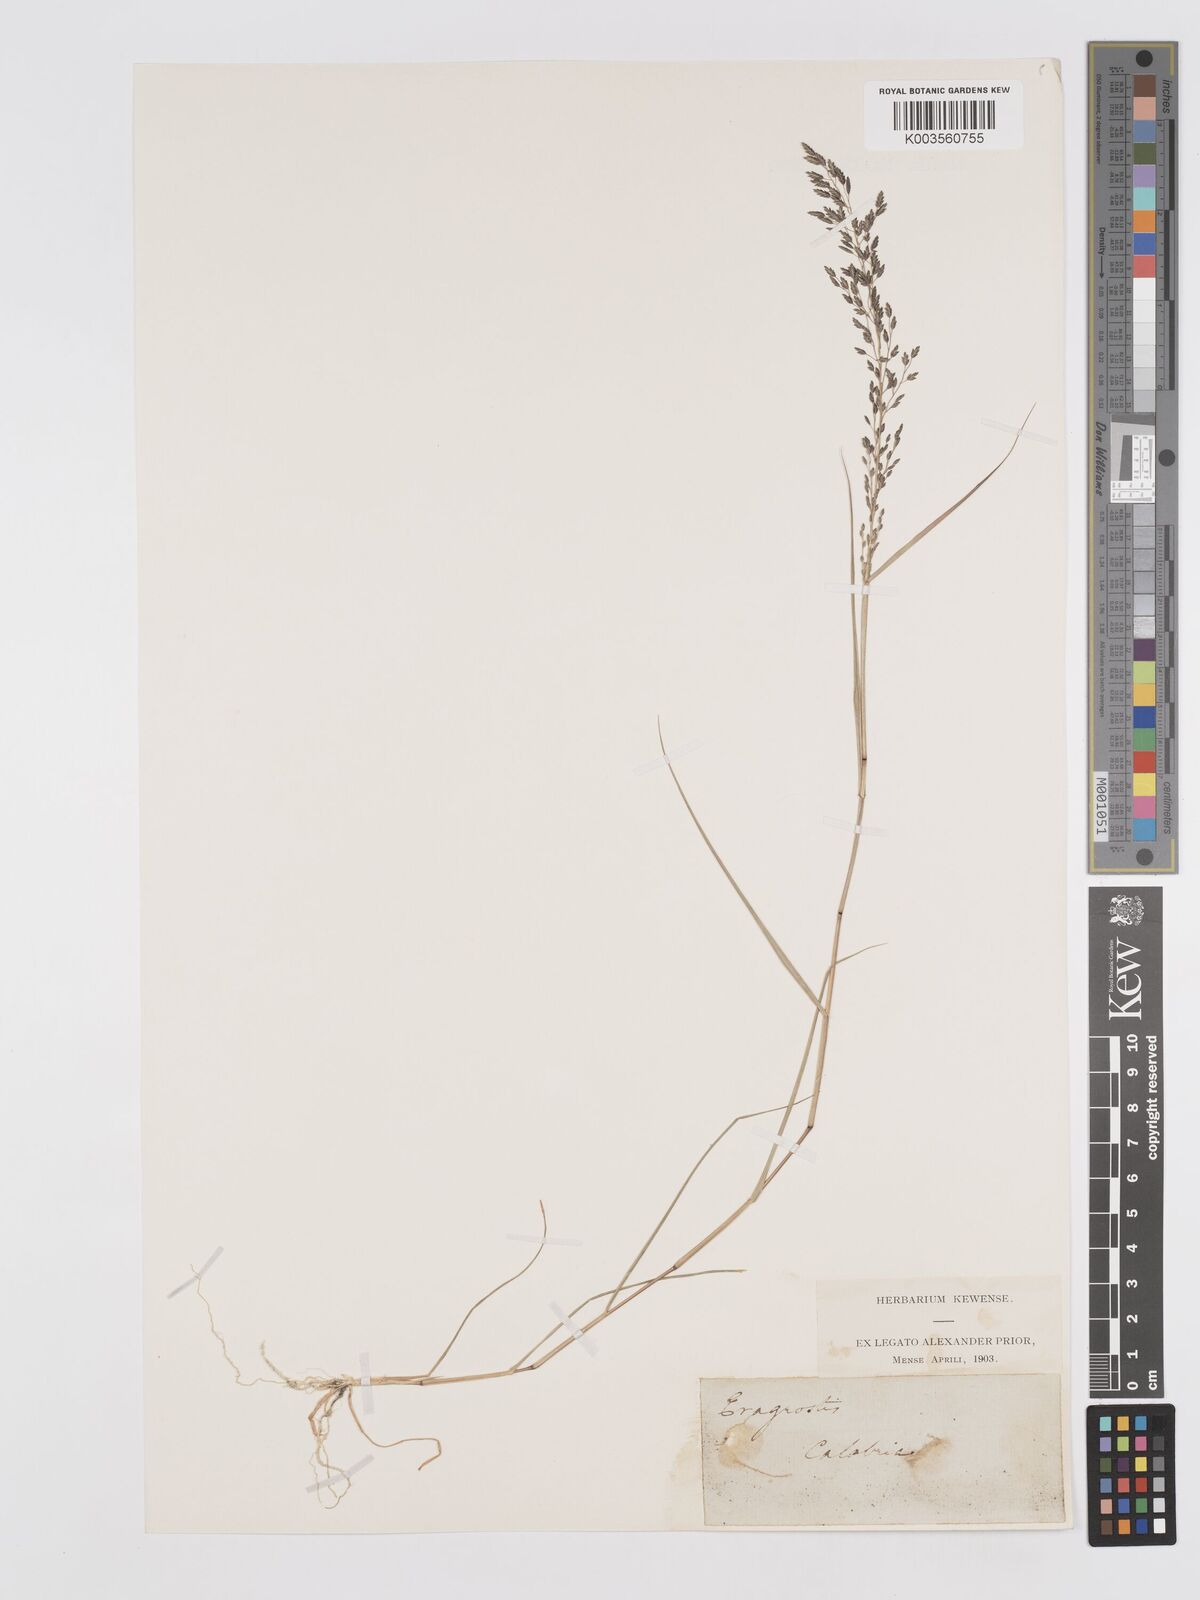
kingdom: Plantae
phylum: Tracheophyta
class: Liliopsida
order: Poales
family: Poaceae
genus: Eragrostis
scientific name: Eragrostis minor
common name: Small love-grass
